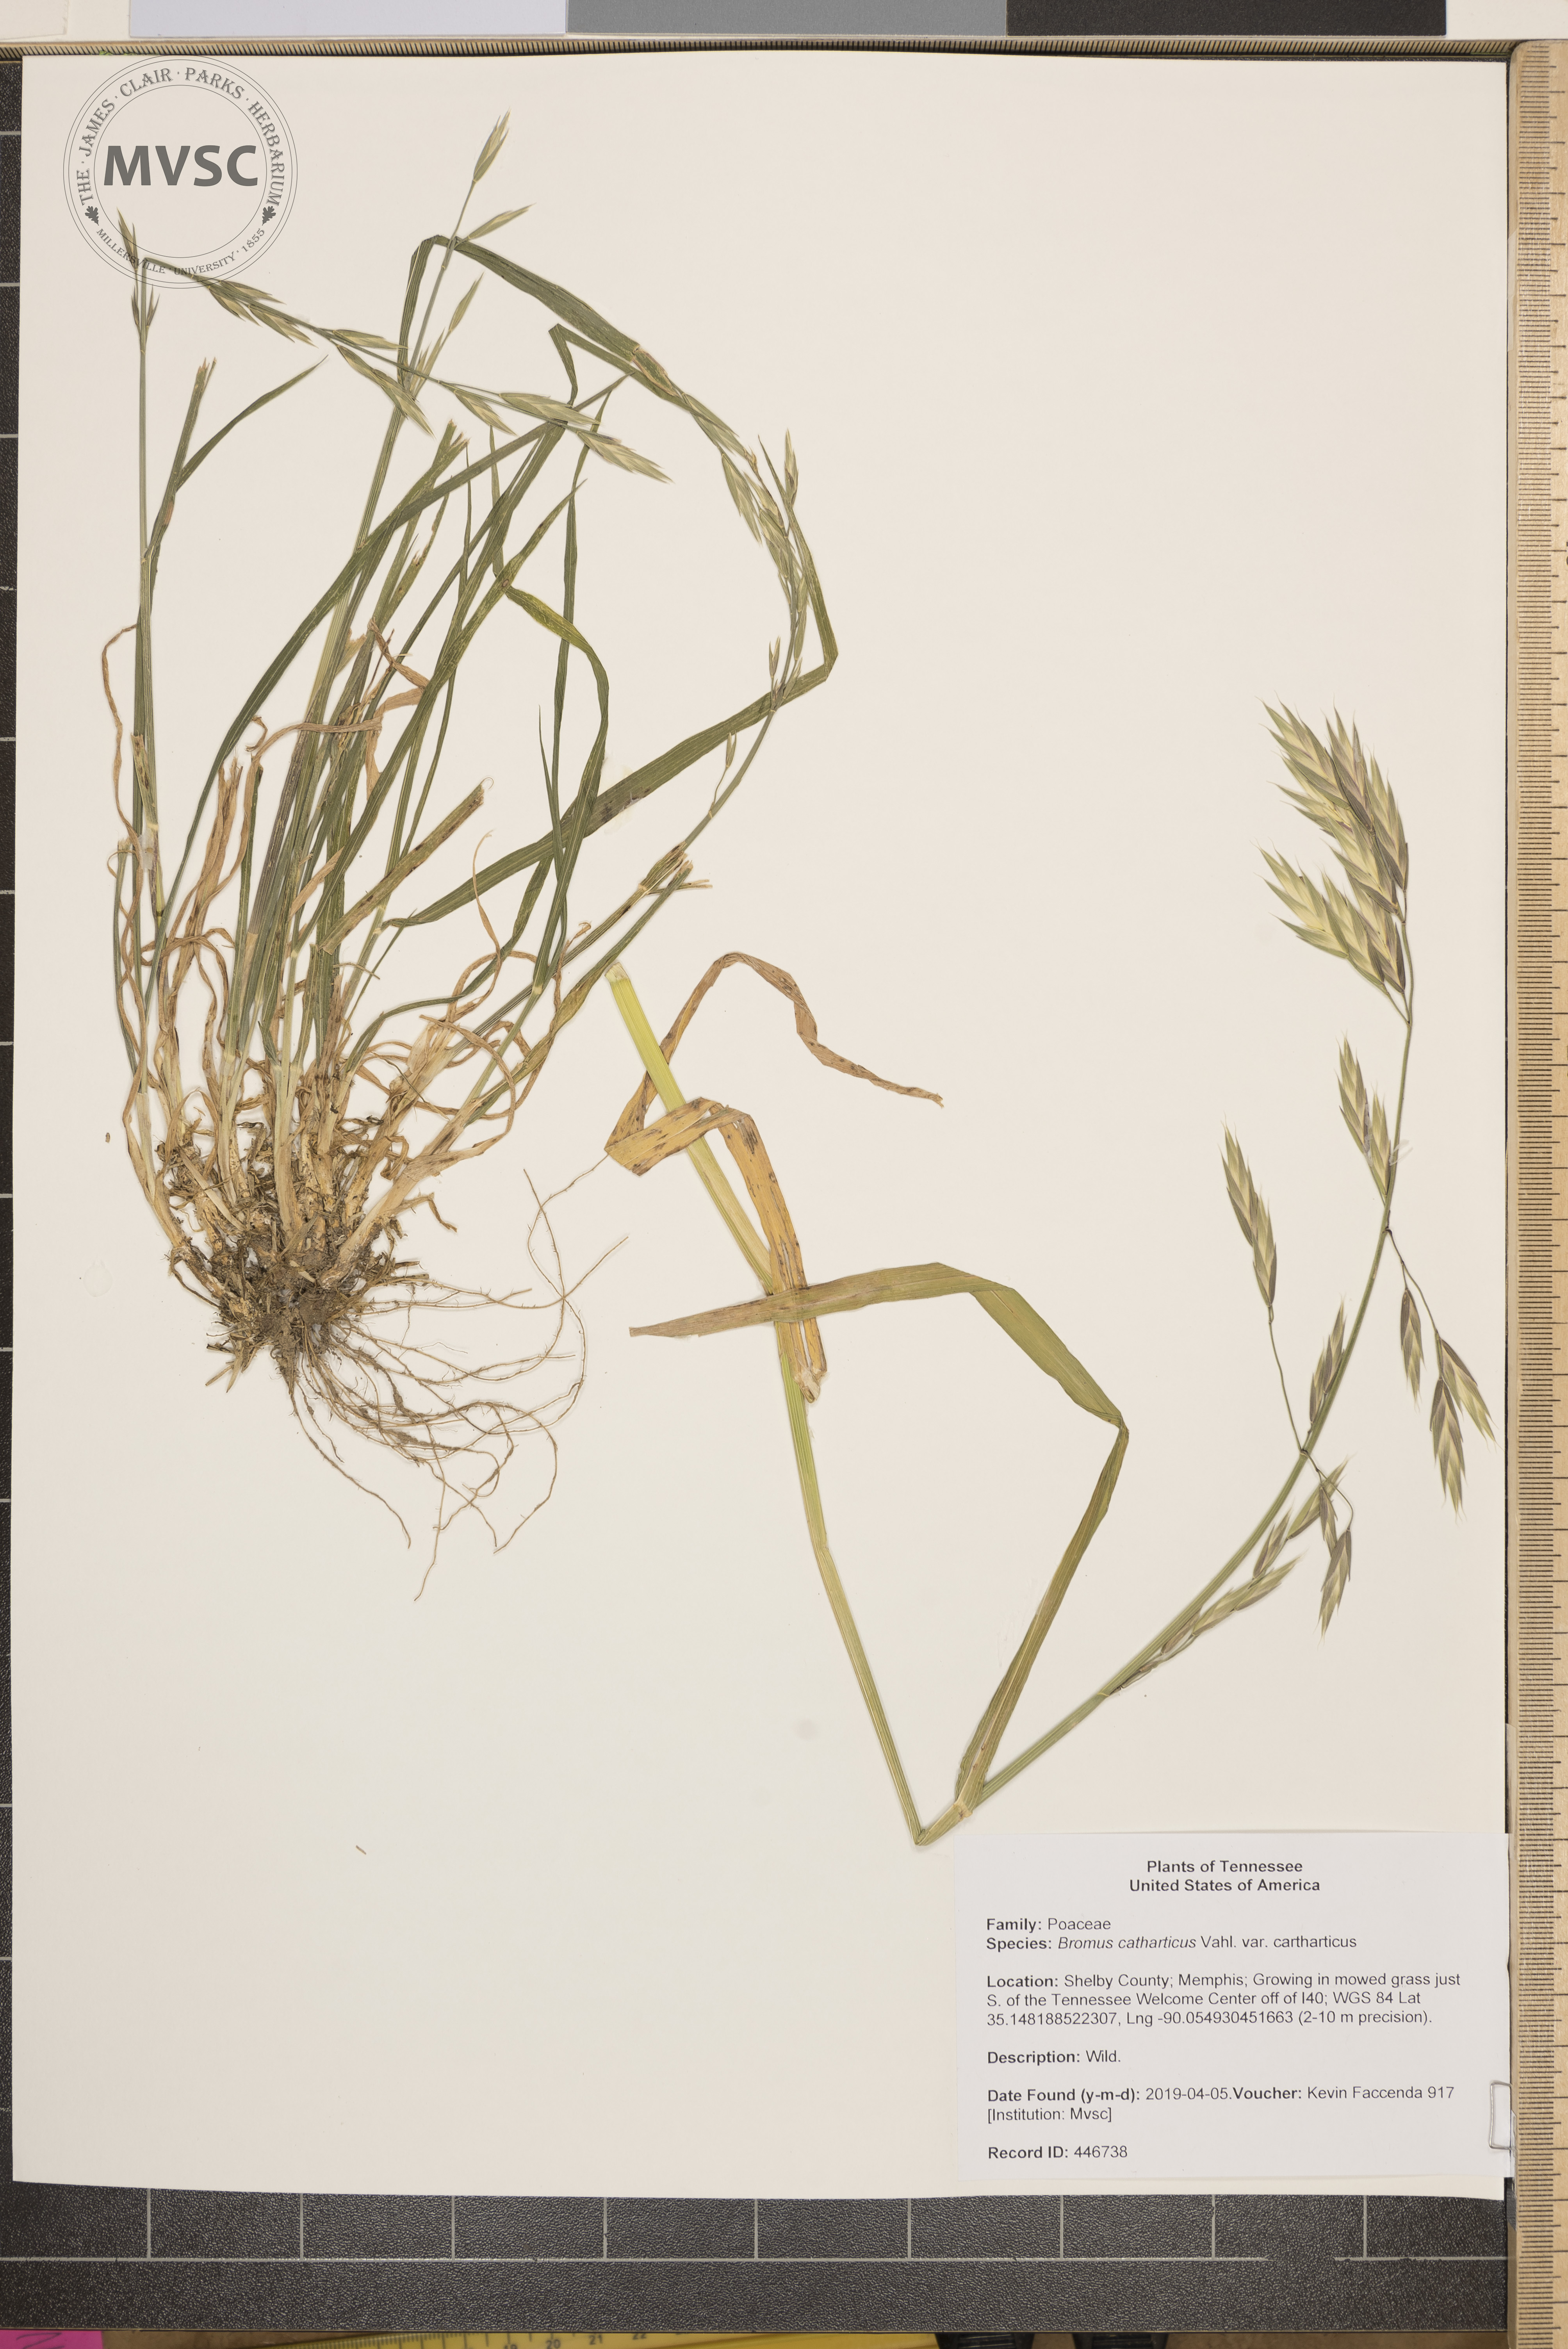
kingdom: Plantae
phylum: Tracheophyta
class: Liliopsida
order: Poales
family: Poaceae
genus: Bromus
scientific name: Bromus catharticus
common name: Rescuegrass
